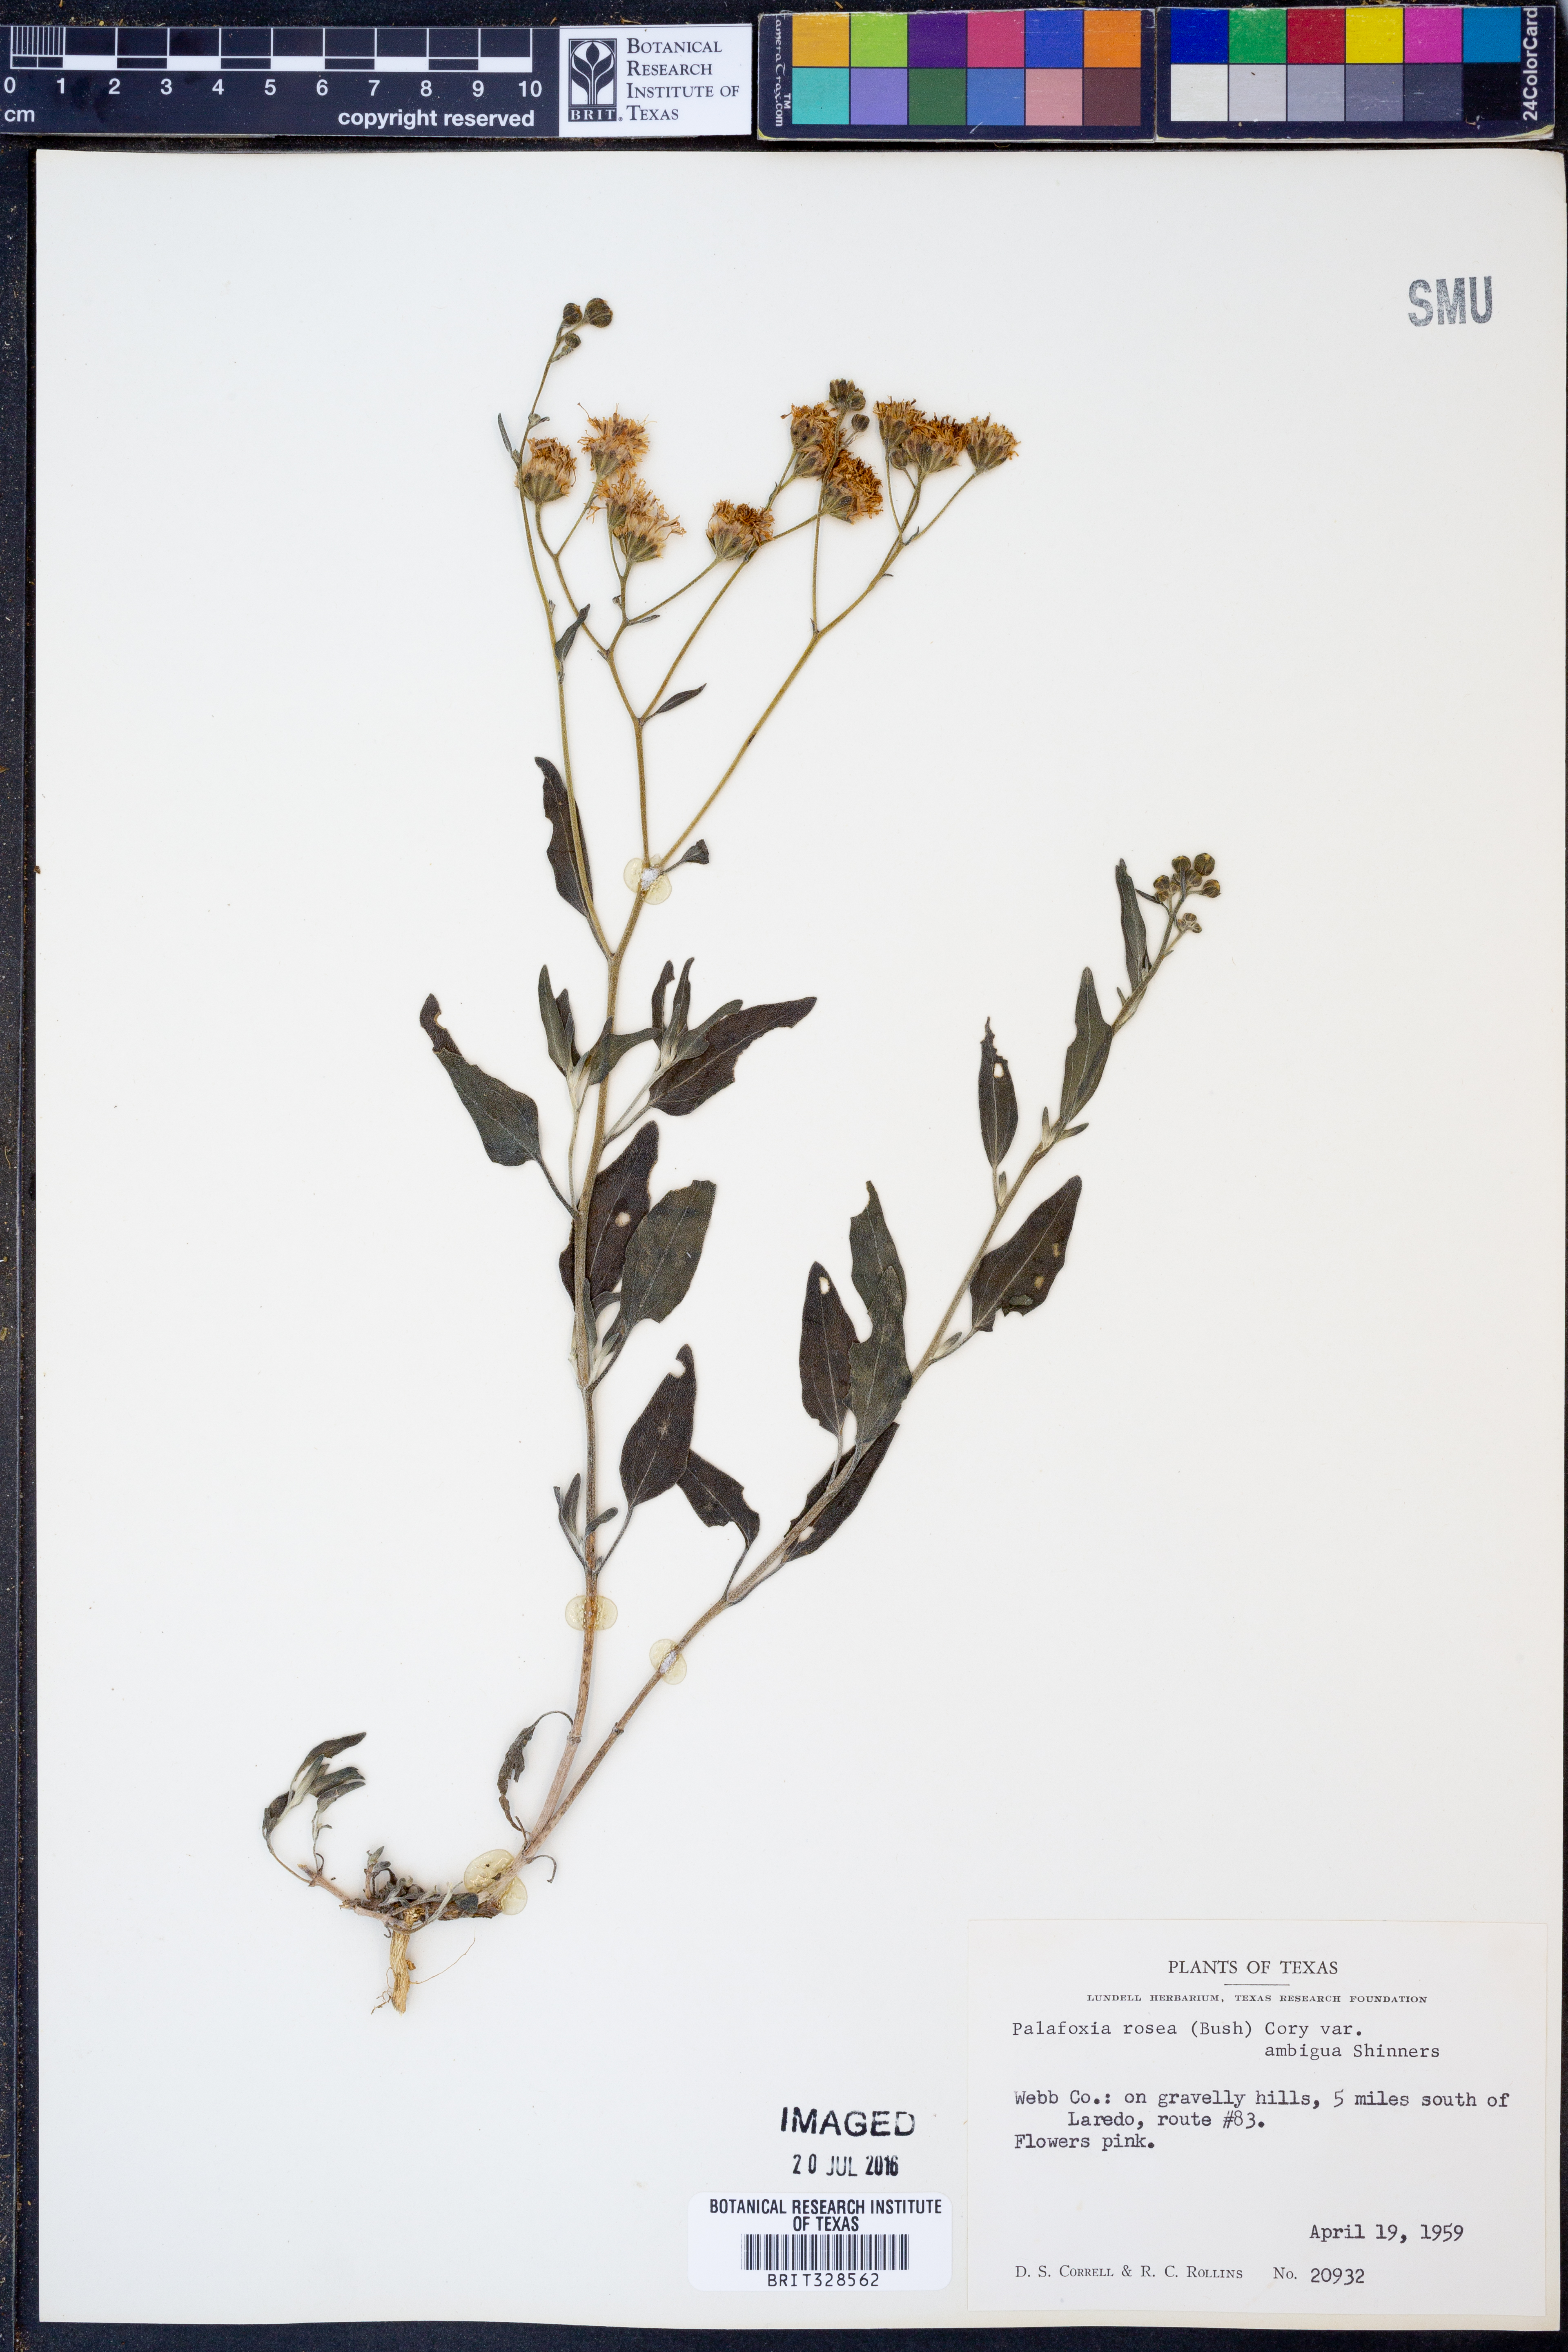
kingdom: Plantae
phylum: Tracheophyta
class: Magnoliopsida
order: Asterales
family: Asteraceae
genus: Palafoxia
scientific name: Palafoxia texana
